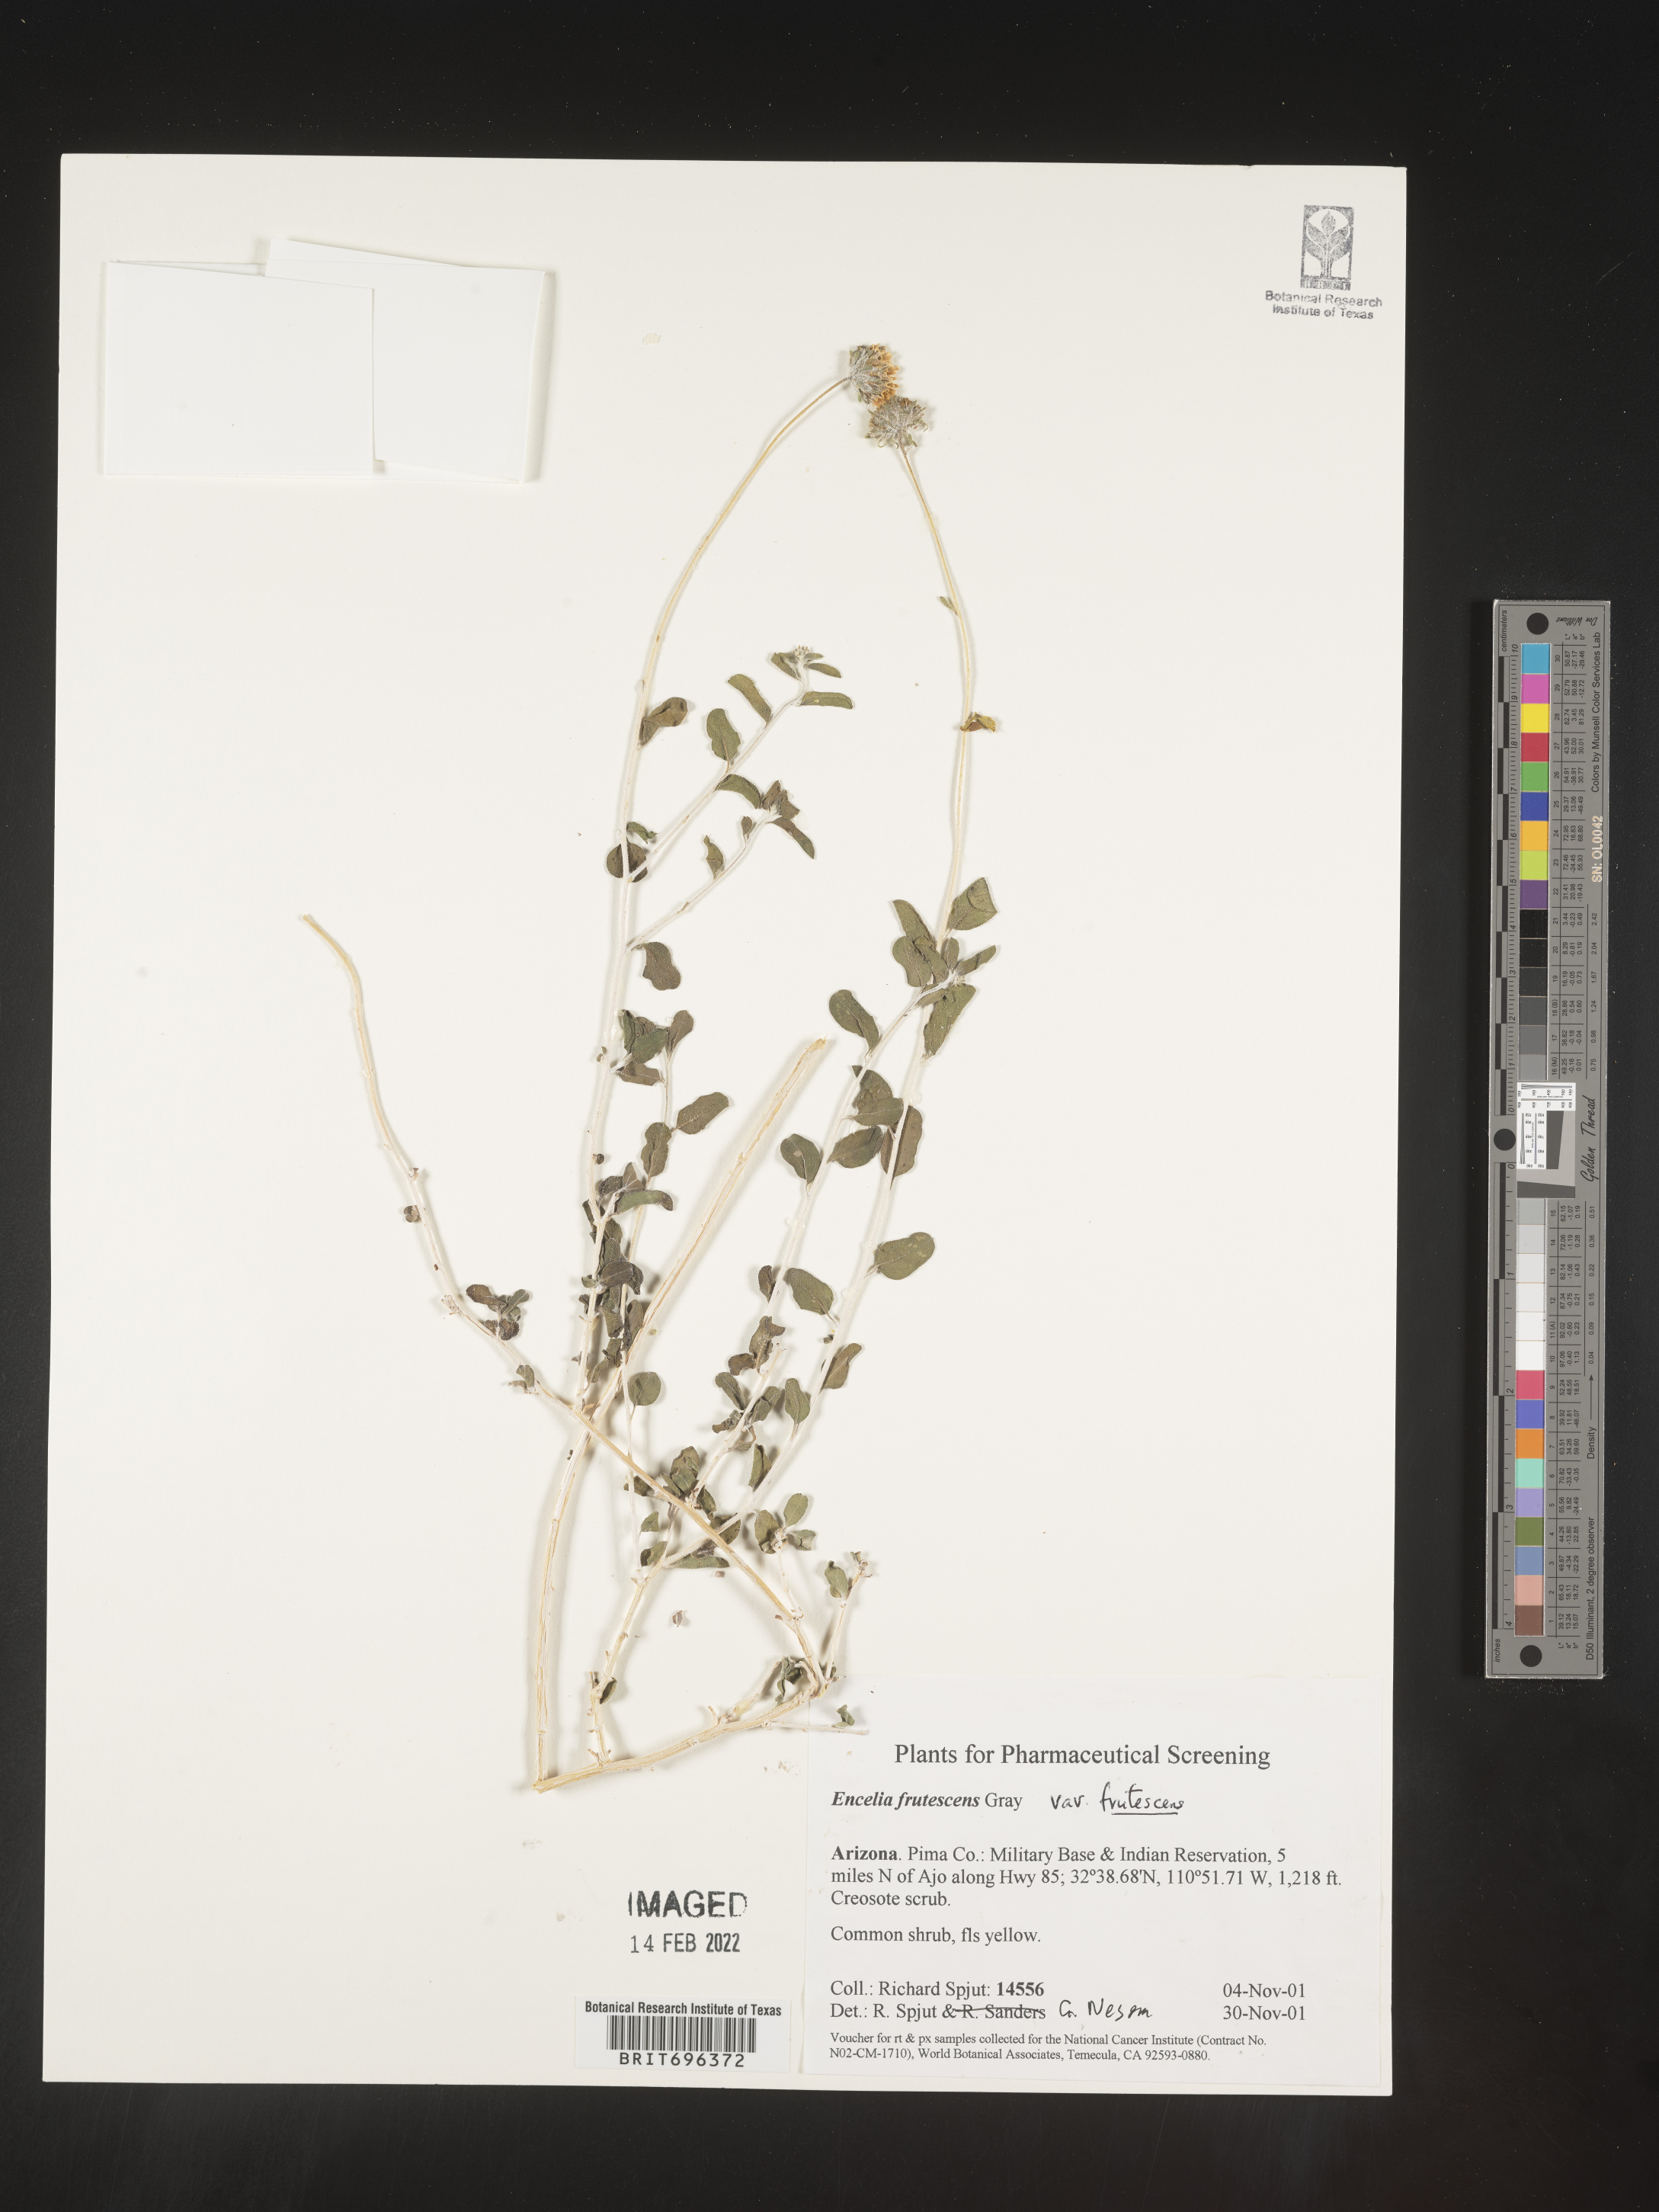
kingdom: Plantae
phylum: Tracheophyta
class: Magnoliopsida
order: Asterales
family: Asteraceae
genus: Encelia
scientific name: Encelia frutescens
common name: Bush encelia
